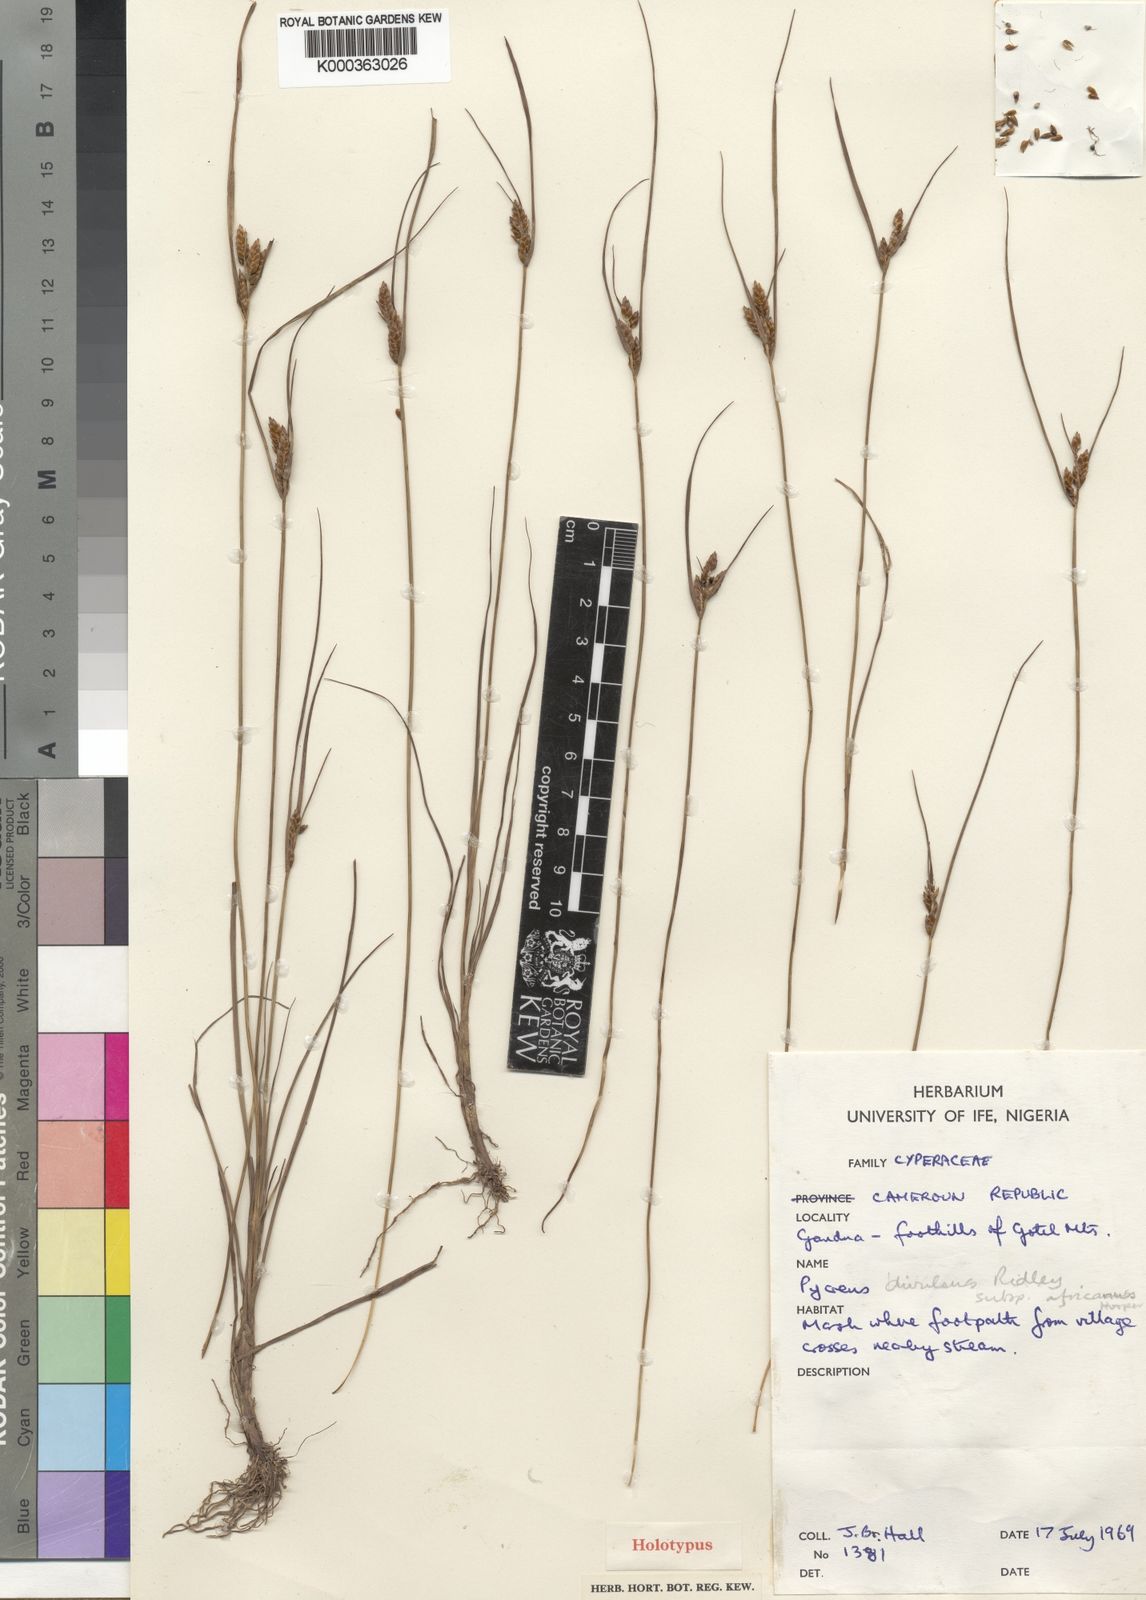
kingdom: Plantae
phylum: Tracheophyta
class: Liliopsida
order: Poales
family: Cyperaceae
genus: Cyperus
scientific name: Cyperus africanus
